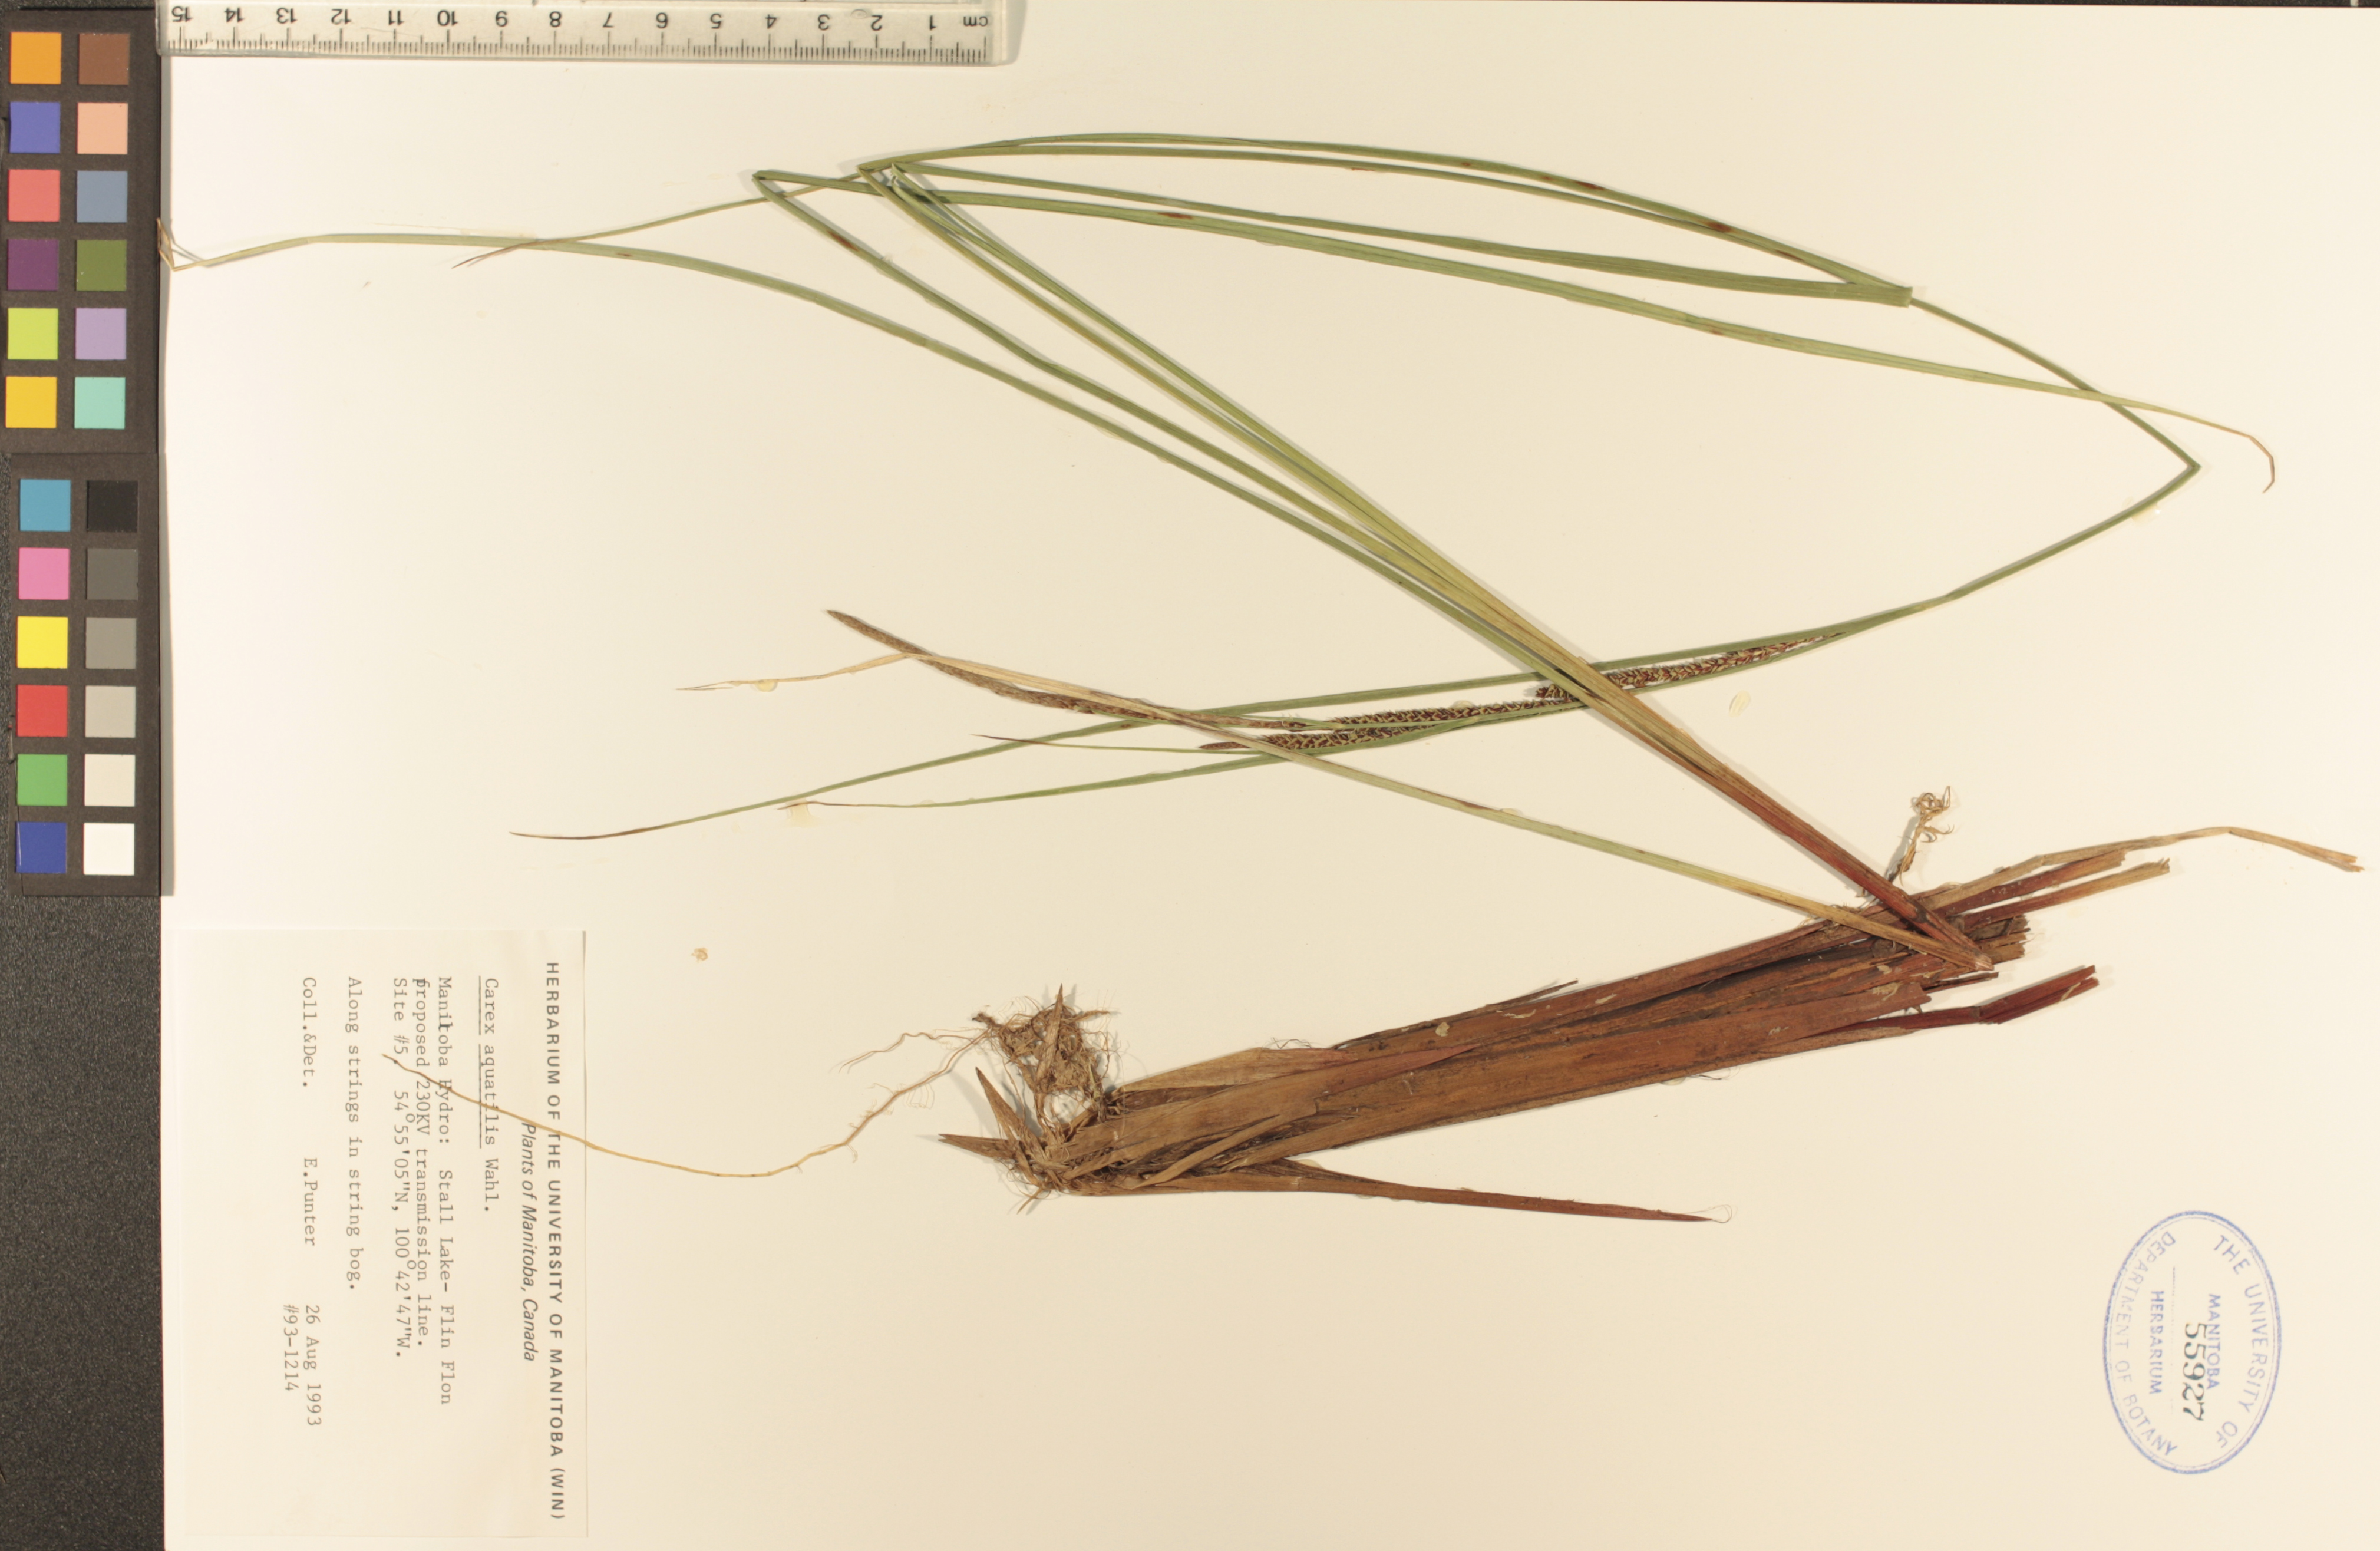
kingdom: Plantae
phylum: Tracheophyta
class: Liliopsida
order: Poales
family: Cyperaceae
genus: Carex
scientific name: Carex aquatilis
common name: Water sedge
